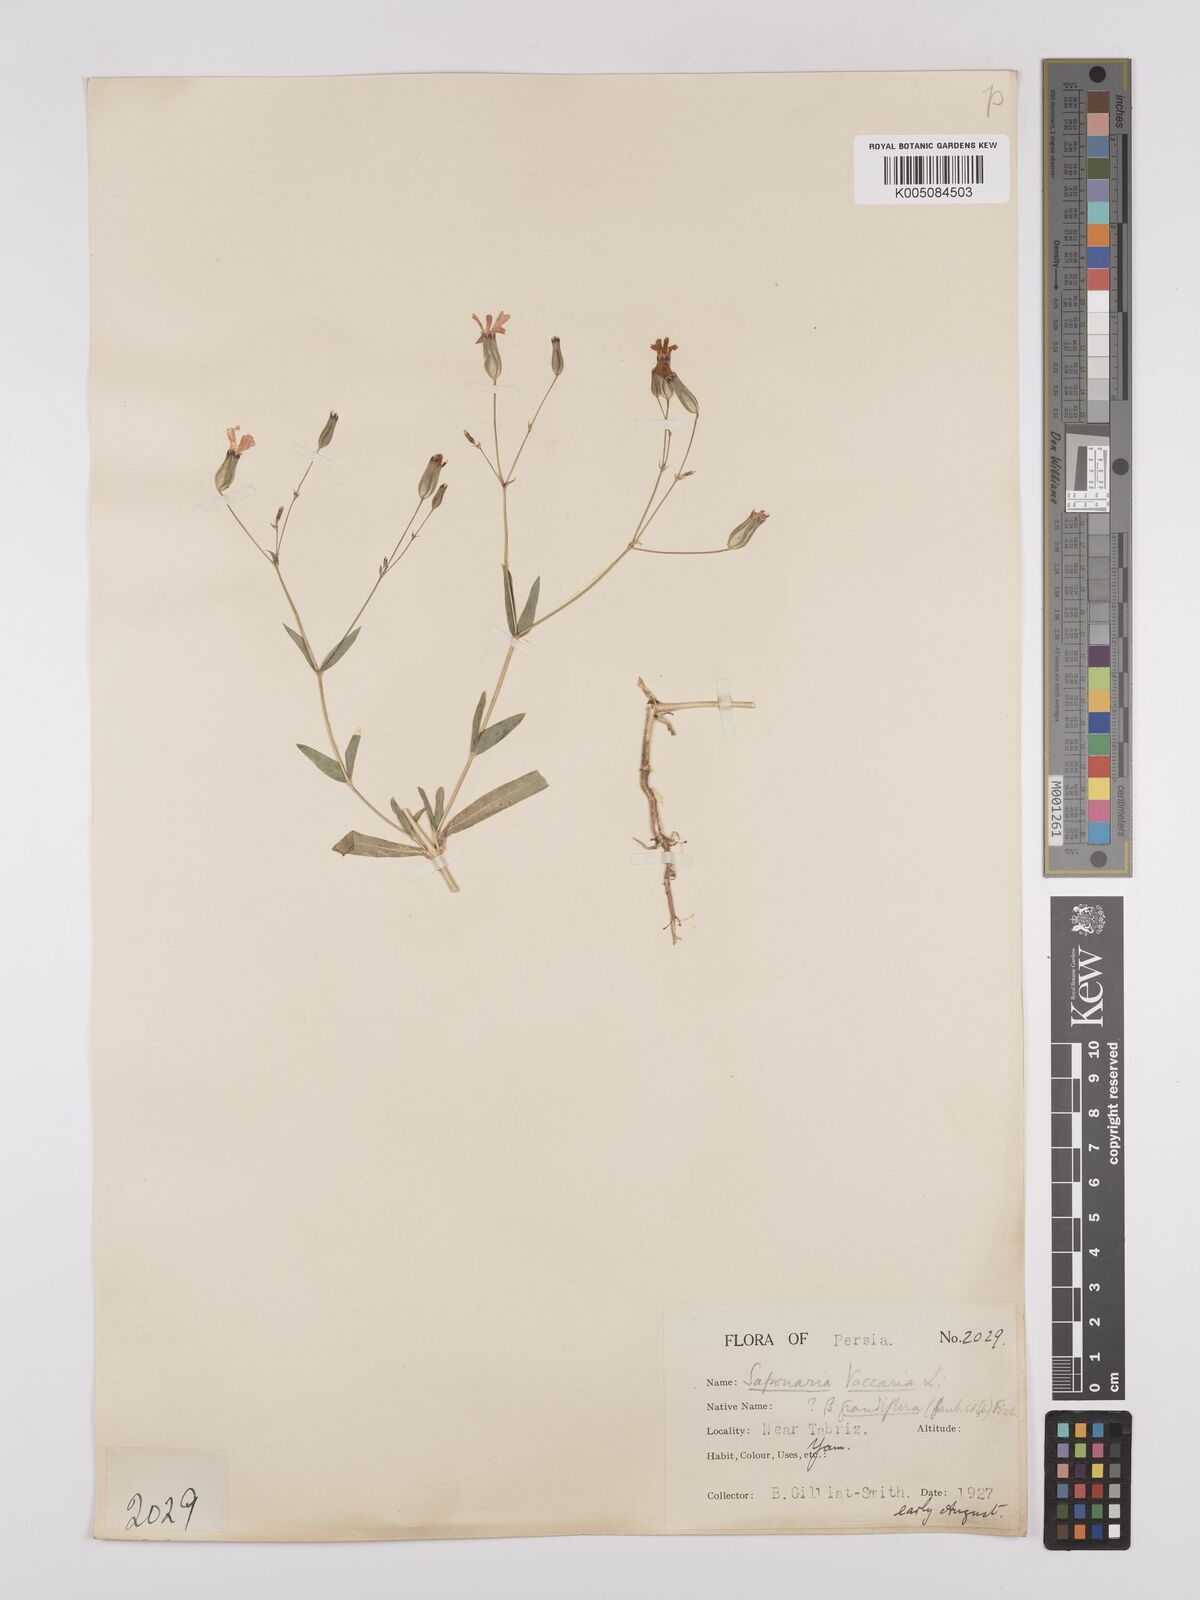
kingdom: Plantae
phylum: Tracheophyta
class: Magnoliopsida
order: Caryophyllales
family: Caryophyllaceae
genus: Gypsophila
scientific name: Gypsophila vaccaria
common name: Cow soapwort
